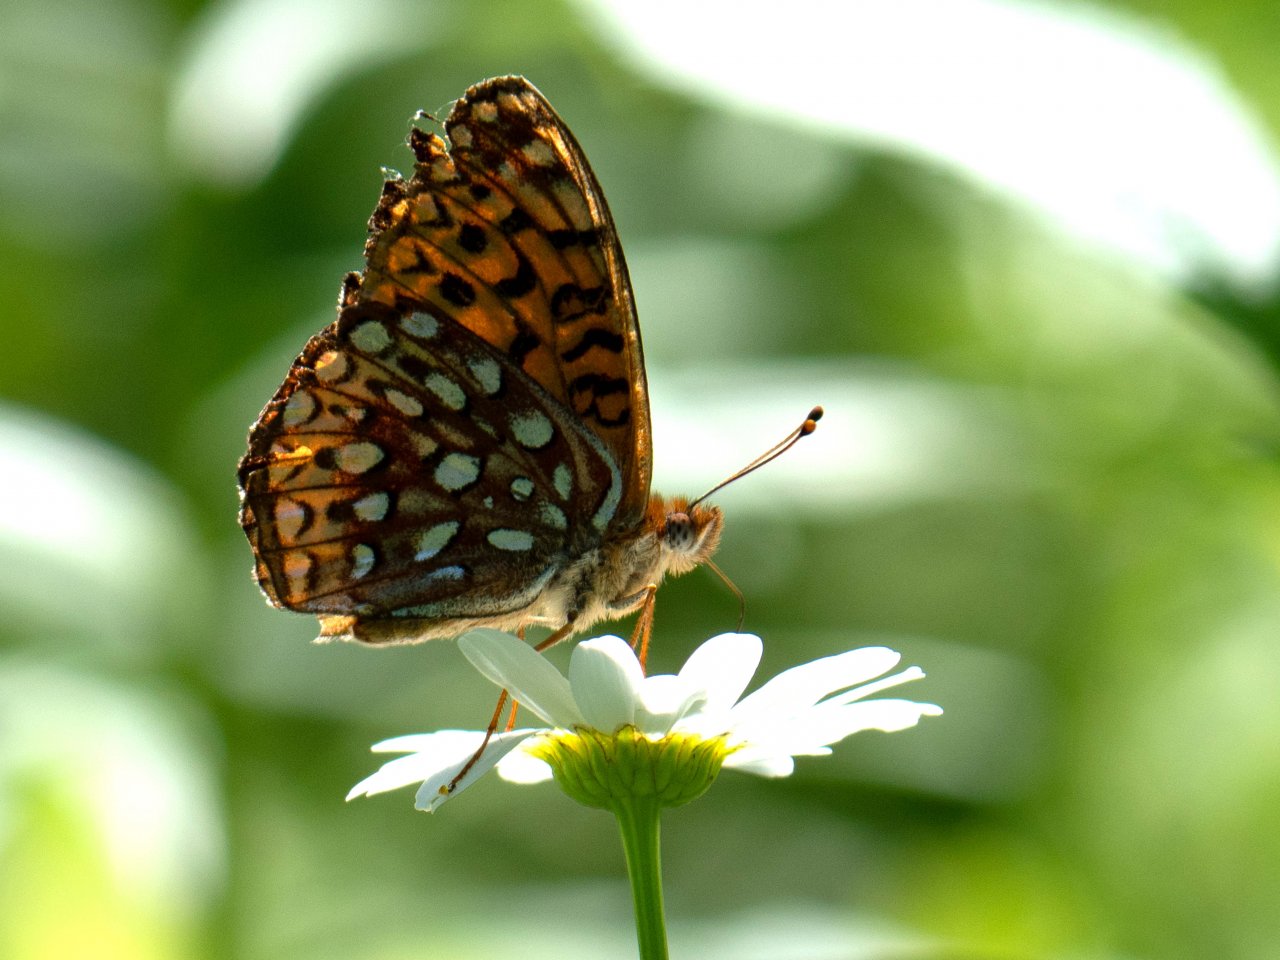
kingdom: Animalia
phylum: Arthropoda
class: Insecta
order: Lepidoptera
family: Nymphalidae
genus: Speyeria
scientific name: Speyeria atlantis
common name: Atlantis Fritillary
